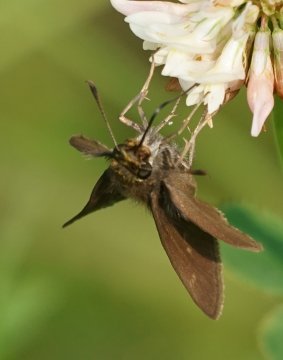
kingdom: Animalia
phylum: Arthropoda
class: Insecta
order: Lepidoptera
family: Hesperiidae
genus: Euphyes
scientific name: Euphyes vestris
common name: Dun Skipper
